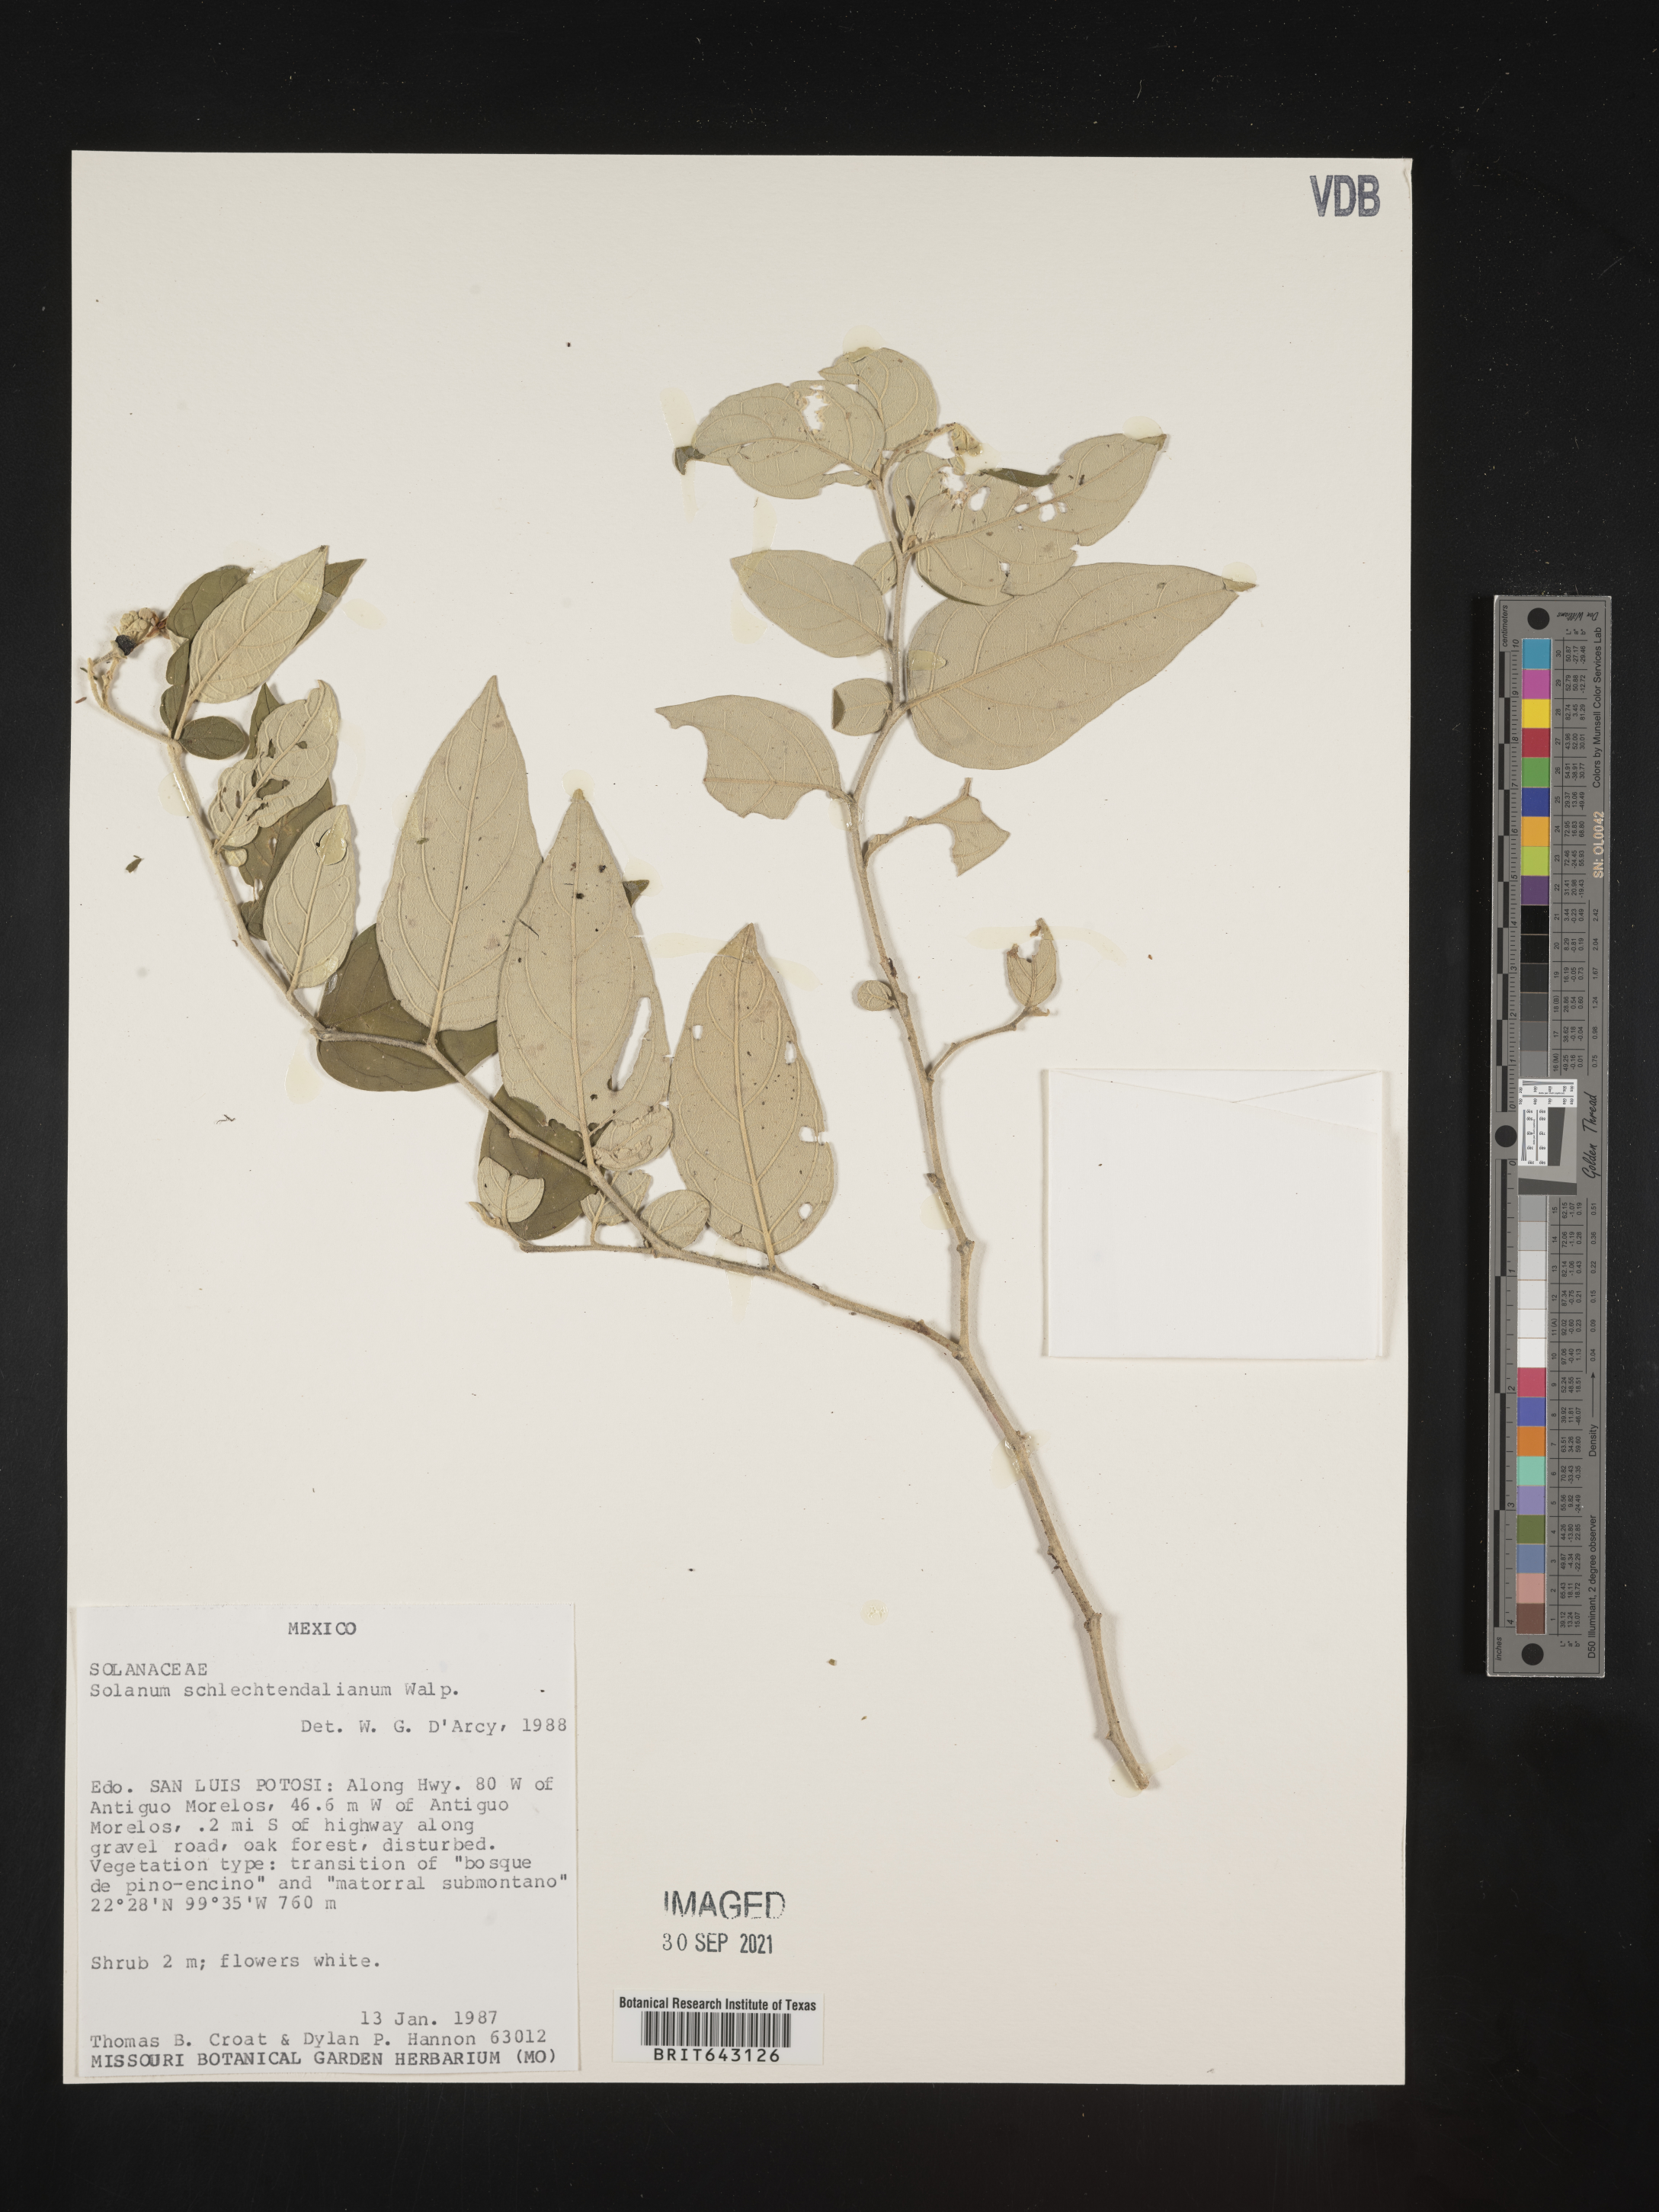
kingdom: Plantae
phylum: Tracheophyta
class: Magnoliopsida
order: Solanales
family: Solanaceae
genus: Solanum
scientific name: Solanum
